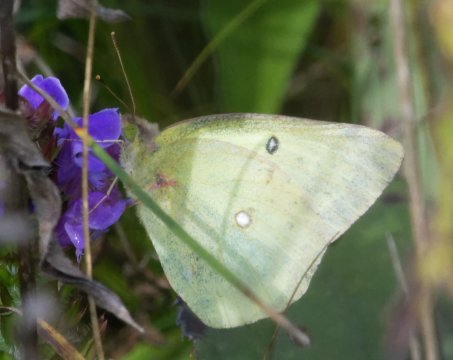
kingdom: Animalia
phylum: Arthropoda
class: Insecta
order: Lepidoptera
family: Pieridae
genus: Colias
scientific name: Colias philodice
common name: Clouded Sulphur
